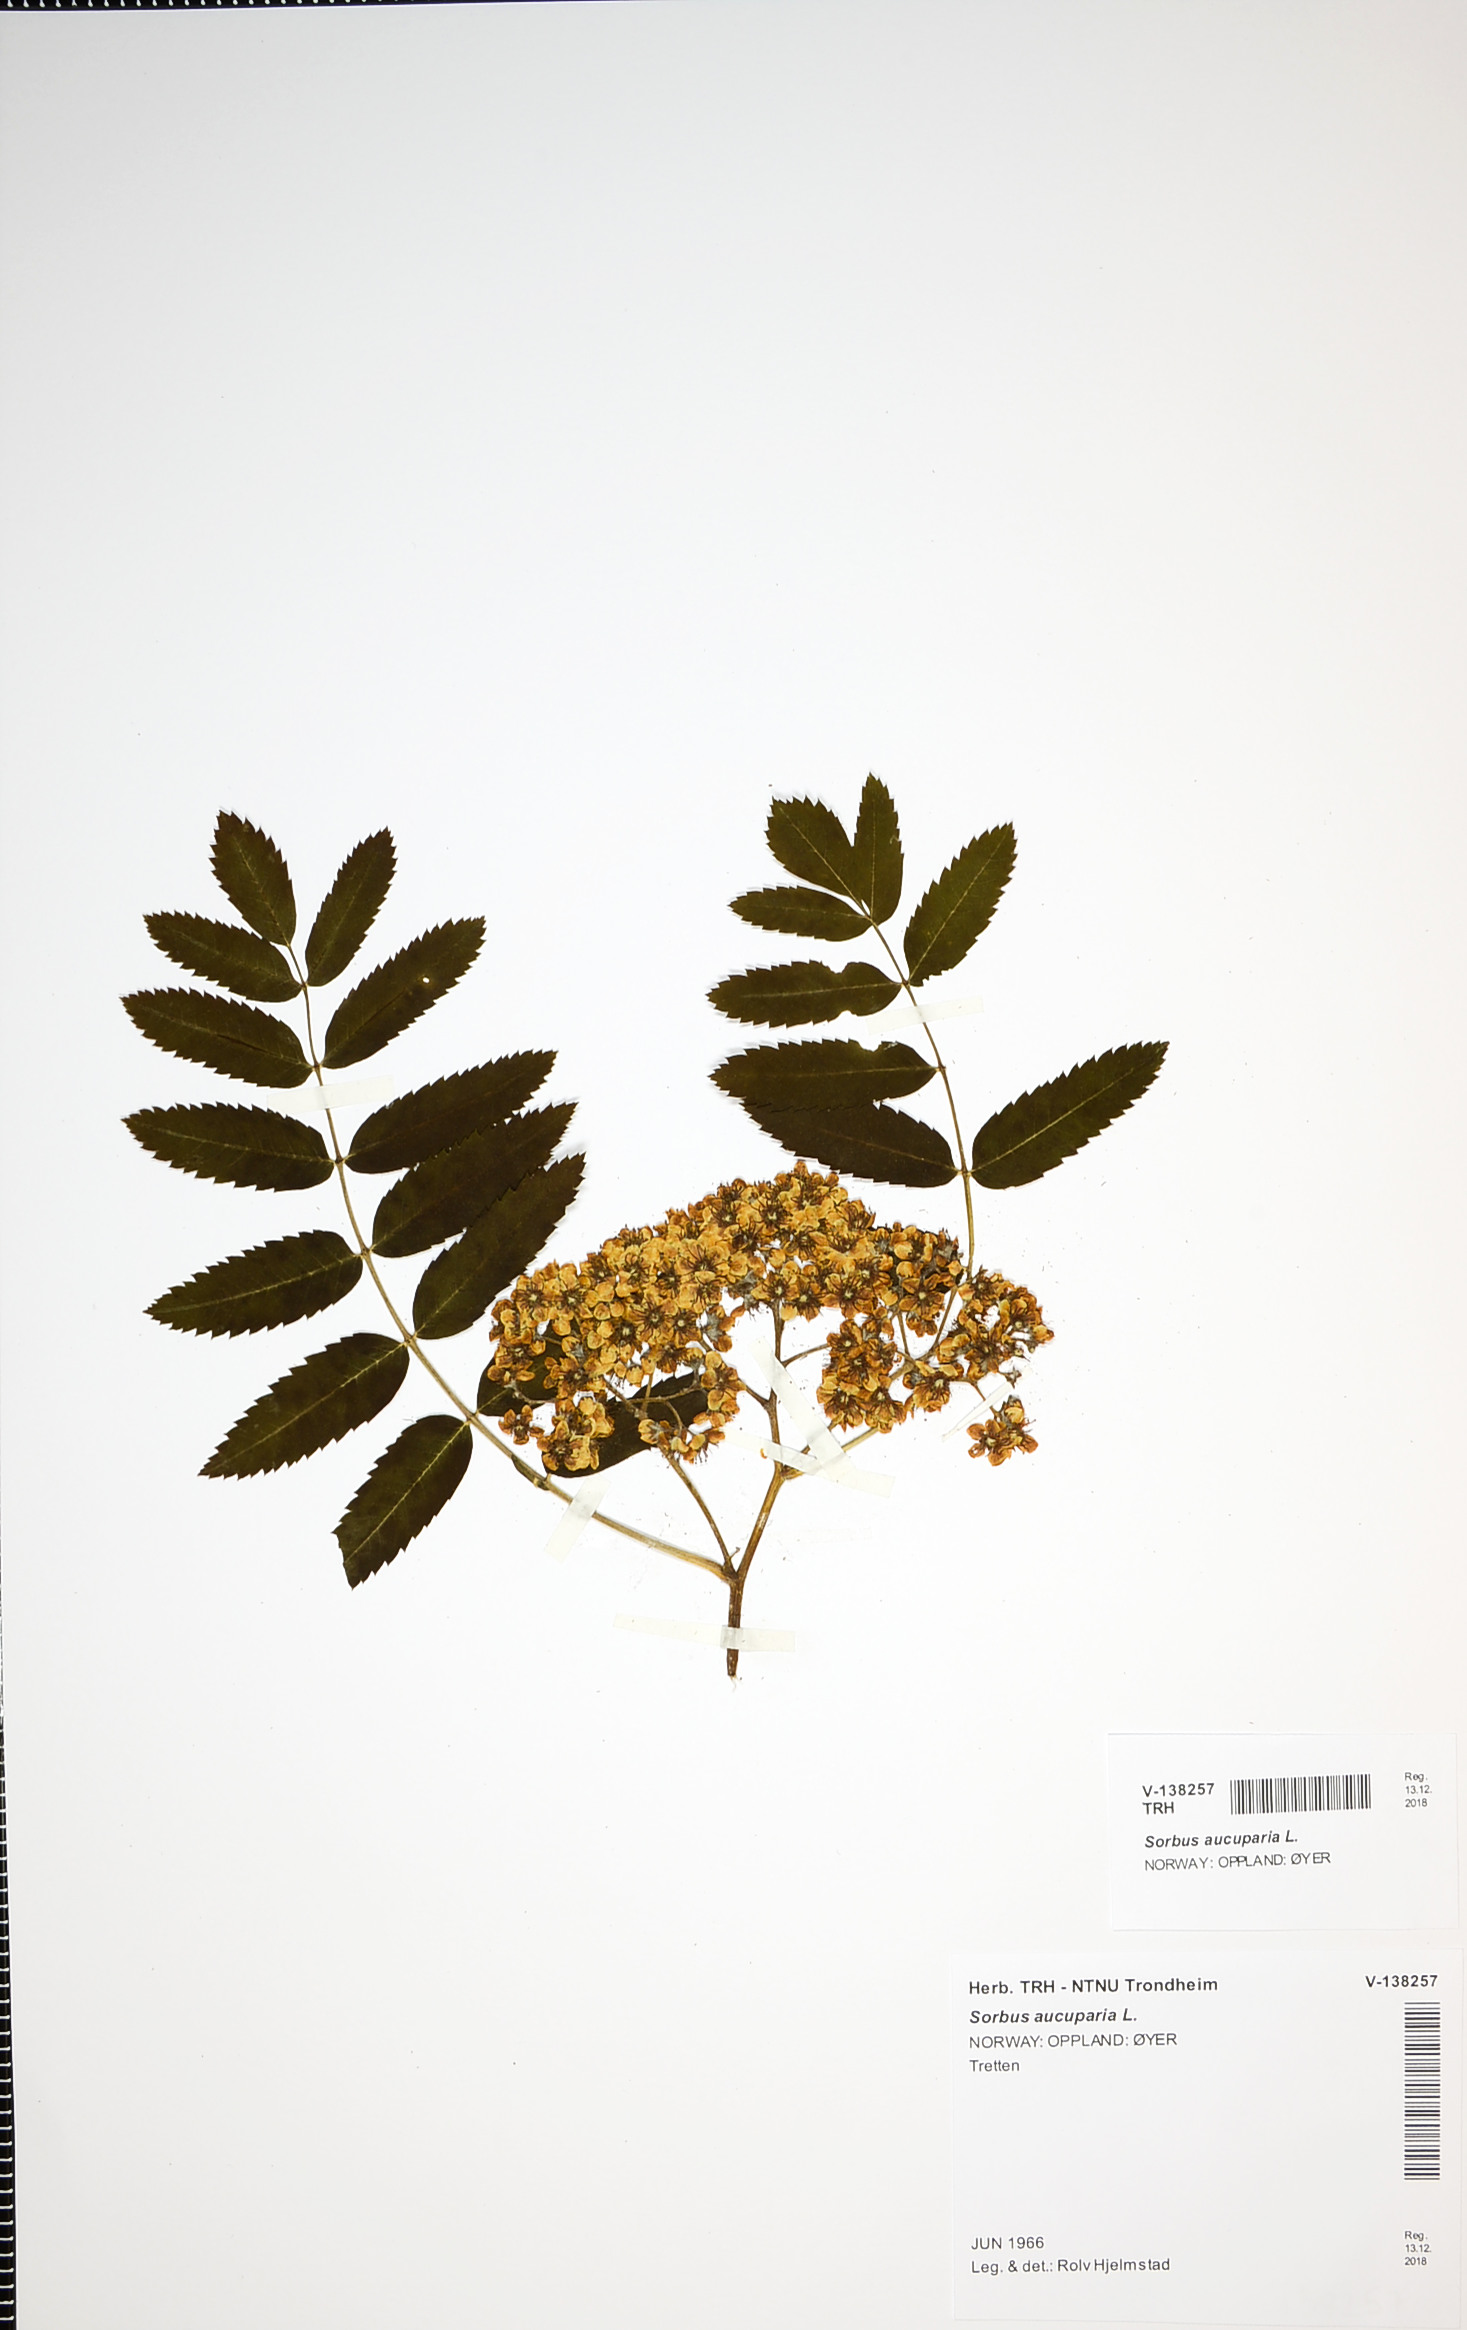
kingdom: Plantae
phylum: Tracheophyta
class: Magnoliopsida
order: Rosales
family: Rosaceae
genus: Sorbus
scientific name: Sorbus aucuparia
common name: Rowan
